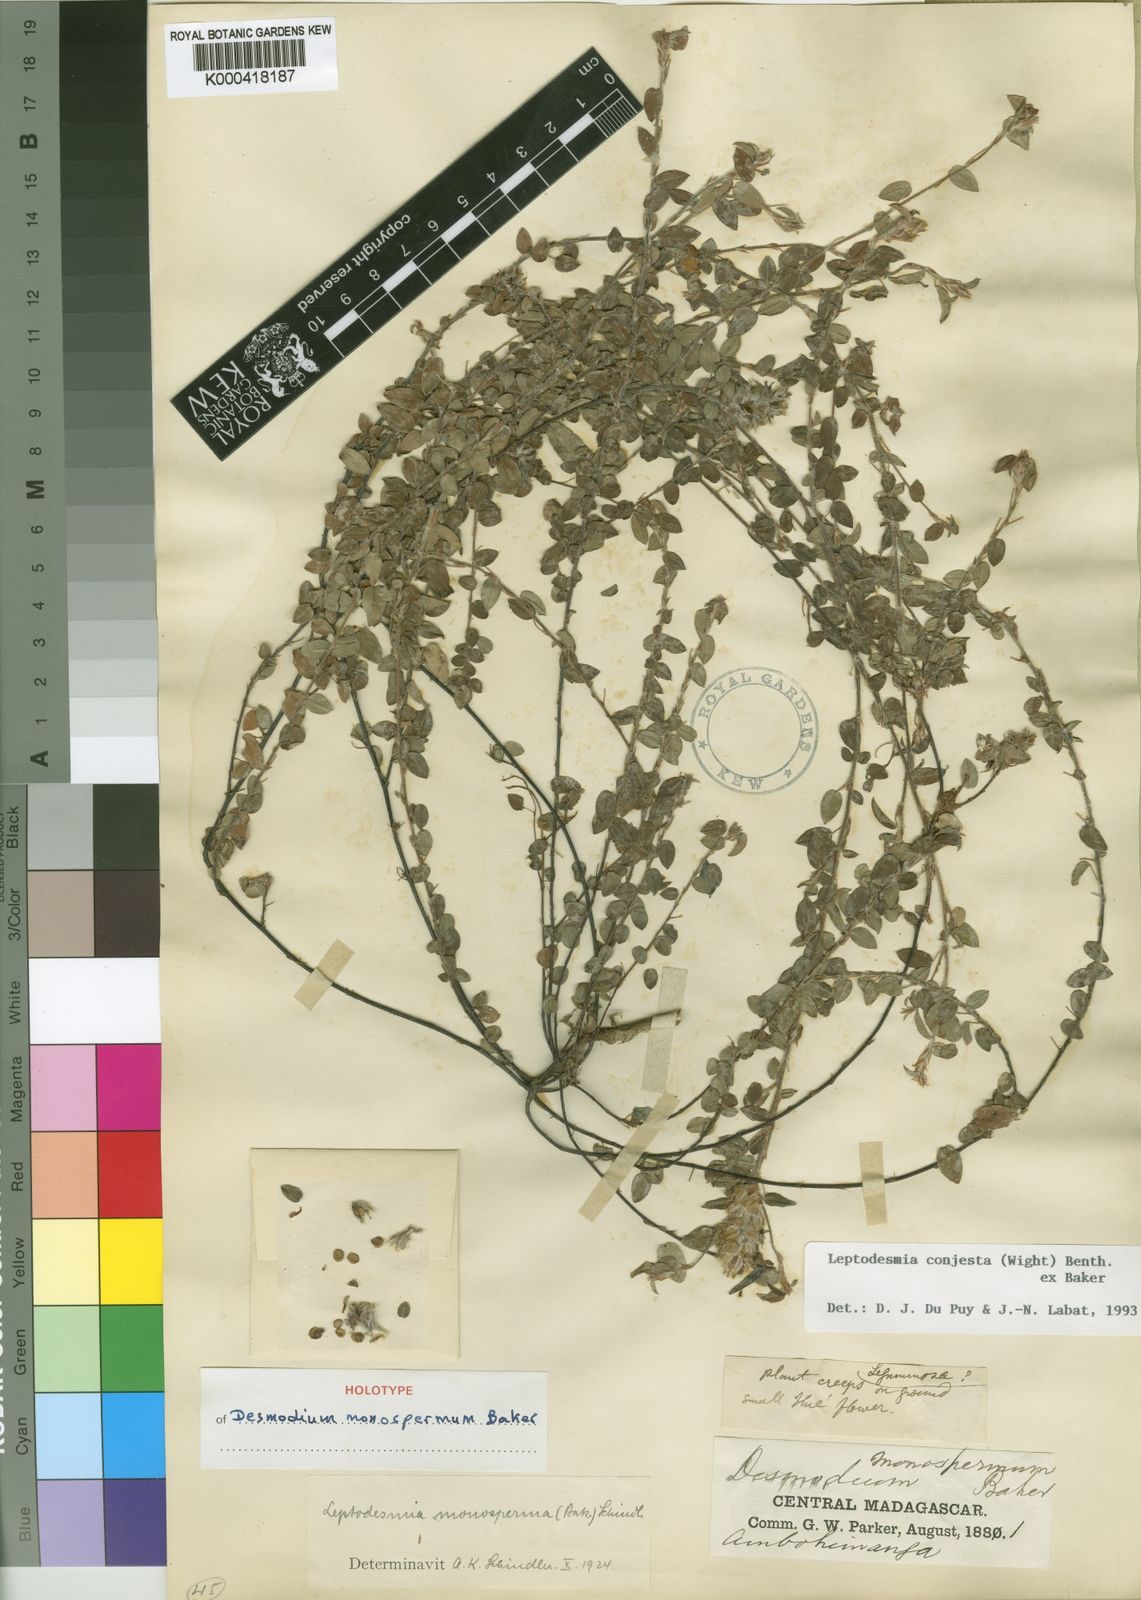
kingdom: Plantae
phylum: Tracheophyta
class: Magnoliopsida
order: Fabales
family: Fabaceae
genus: Leptodesmia
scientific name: Leptodesmia
